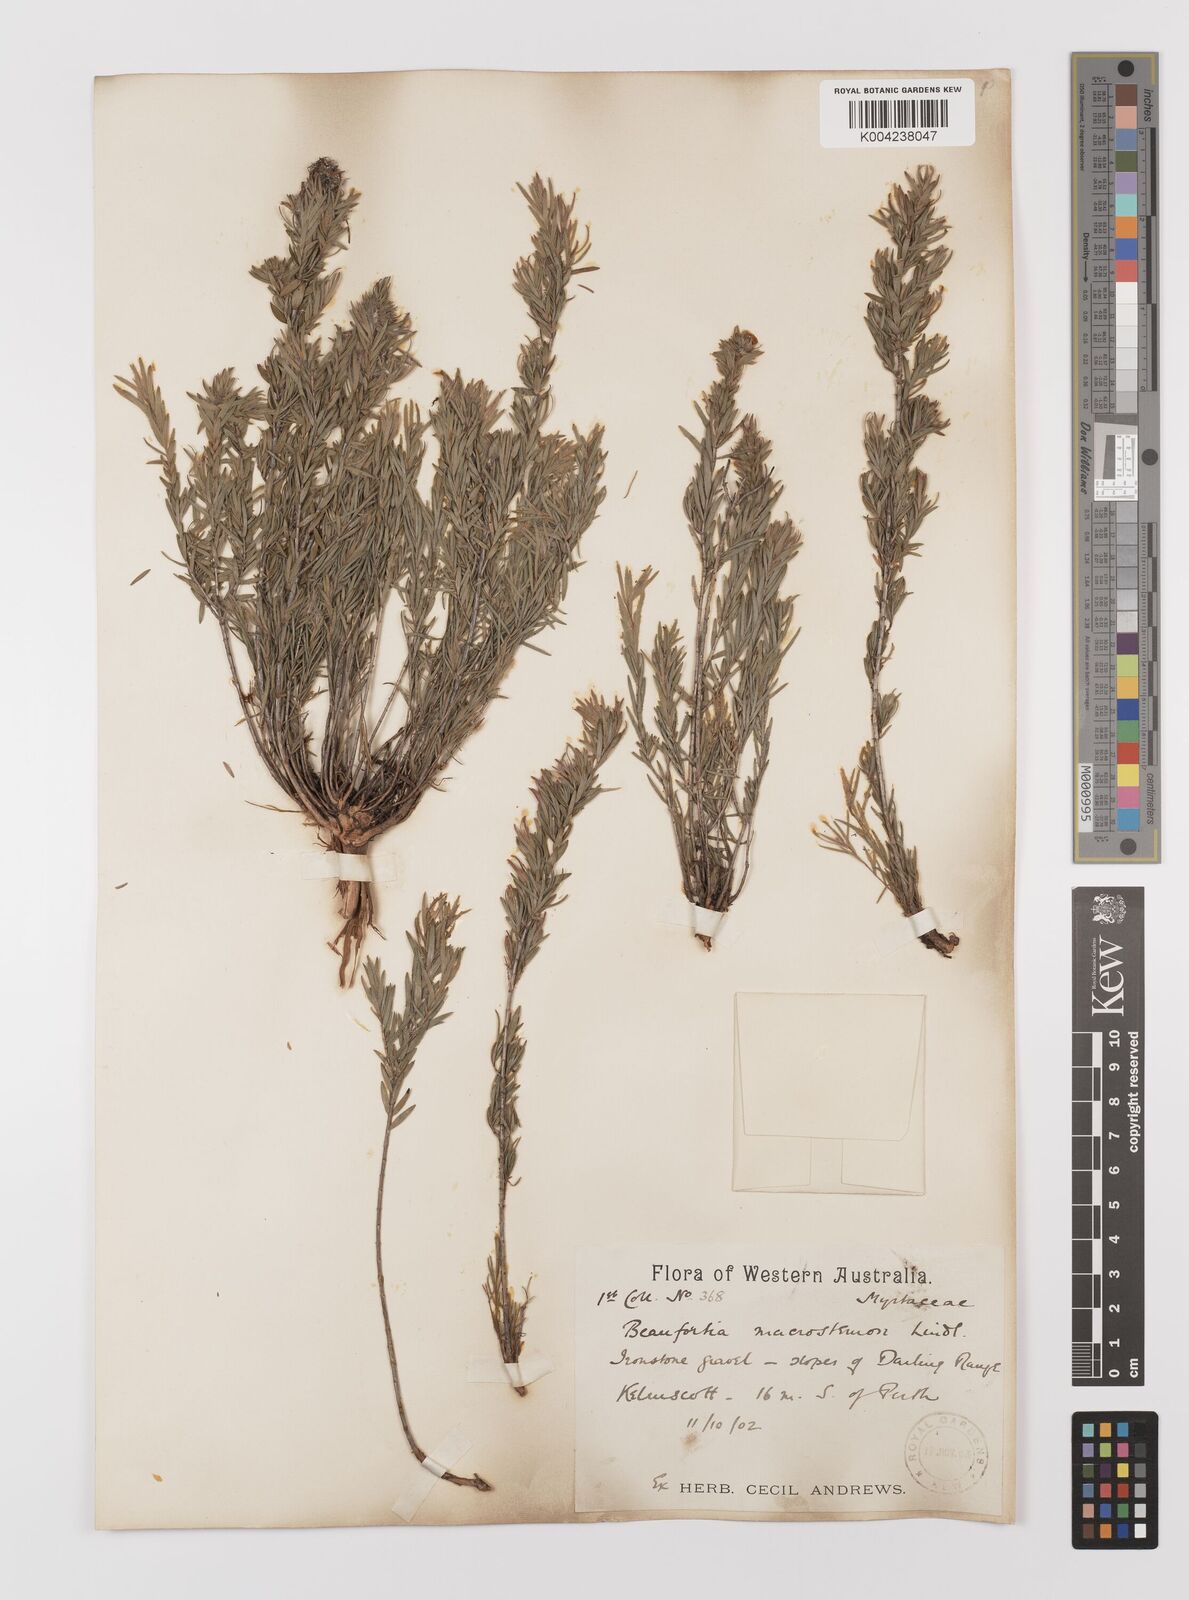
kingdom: Plantae
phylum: Tracheophyta
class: Magnoliopsida
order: Myrtales
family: Myrtaceae
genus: Melaleuca
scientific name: Melaleuca macrostemon
